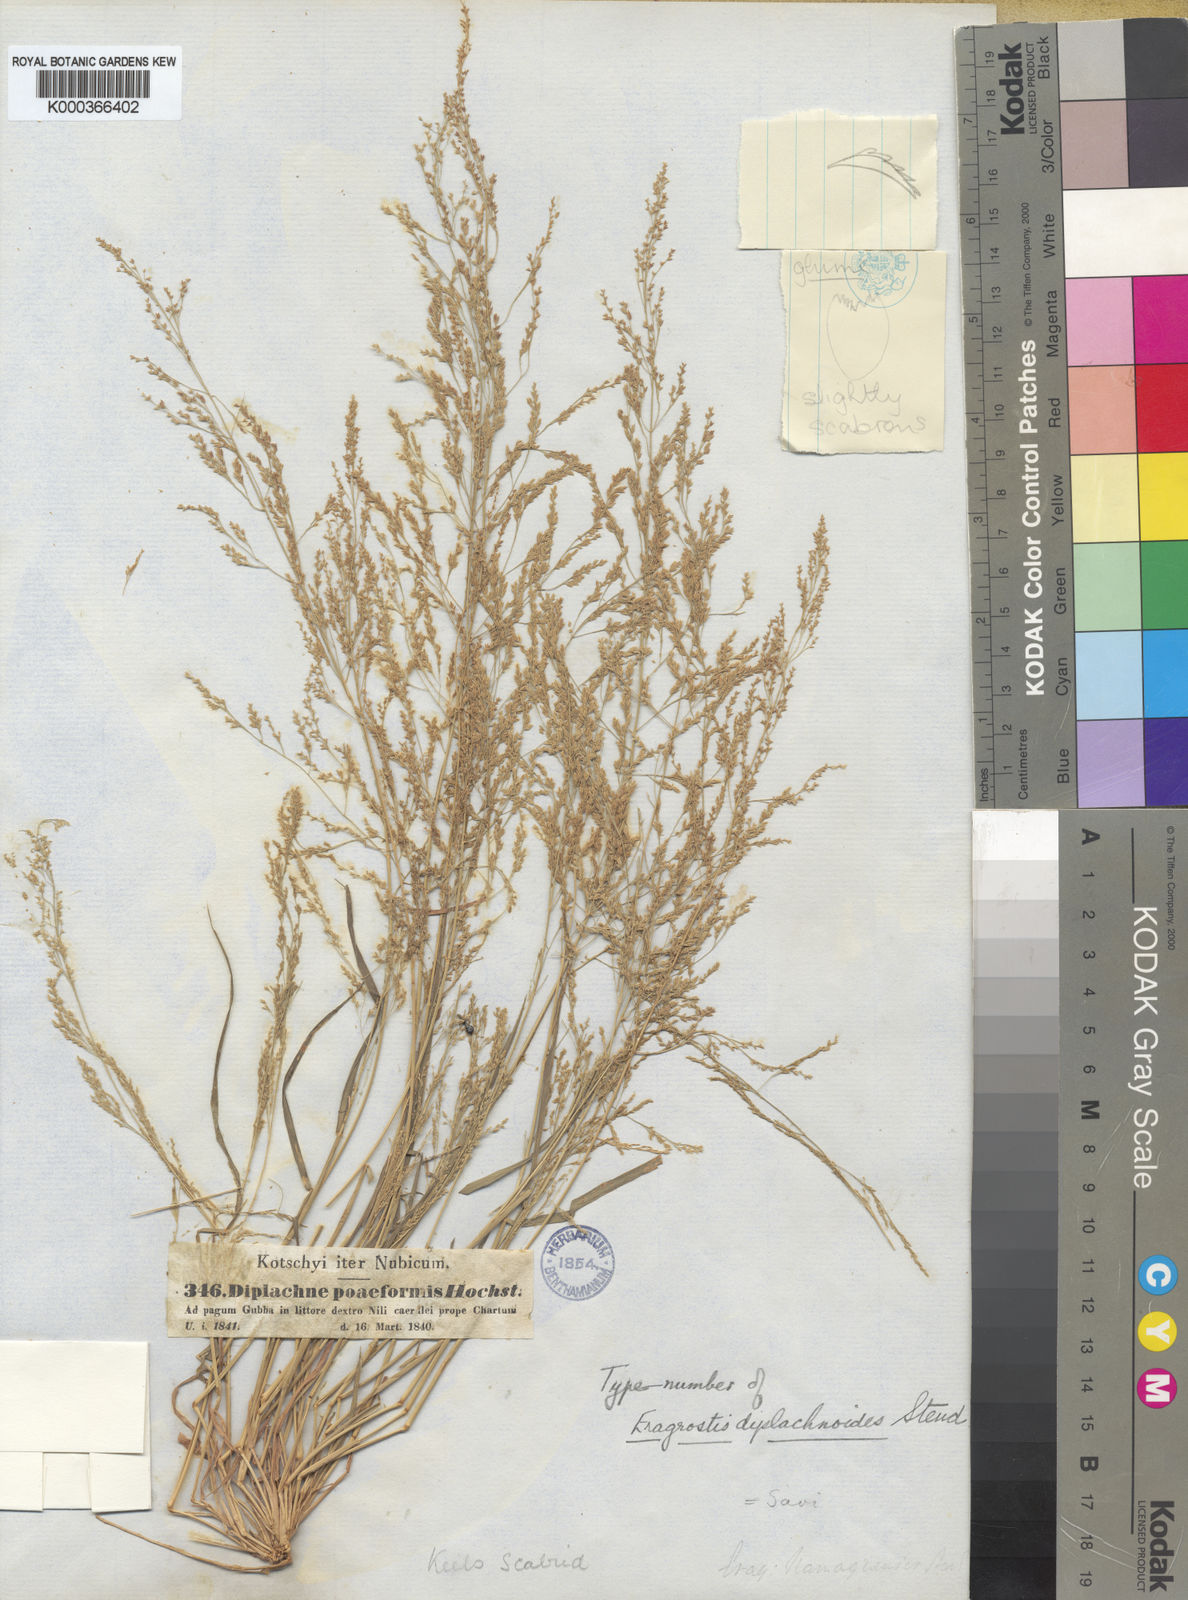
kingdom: Plantae
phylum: Tracheophyta
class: Liliopsida
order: Poales
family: Poaceae
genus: Eragrostis
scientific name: Eragrostis japonica
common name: Pond lovegrass
